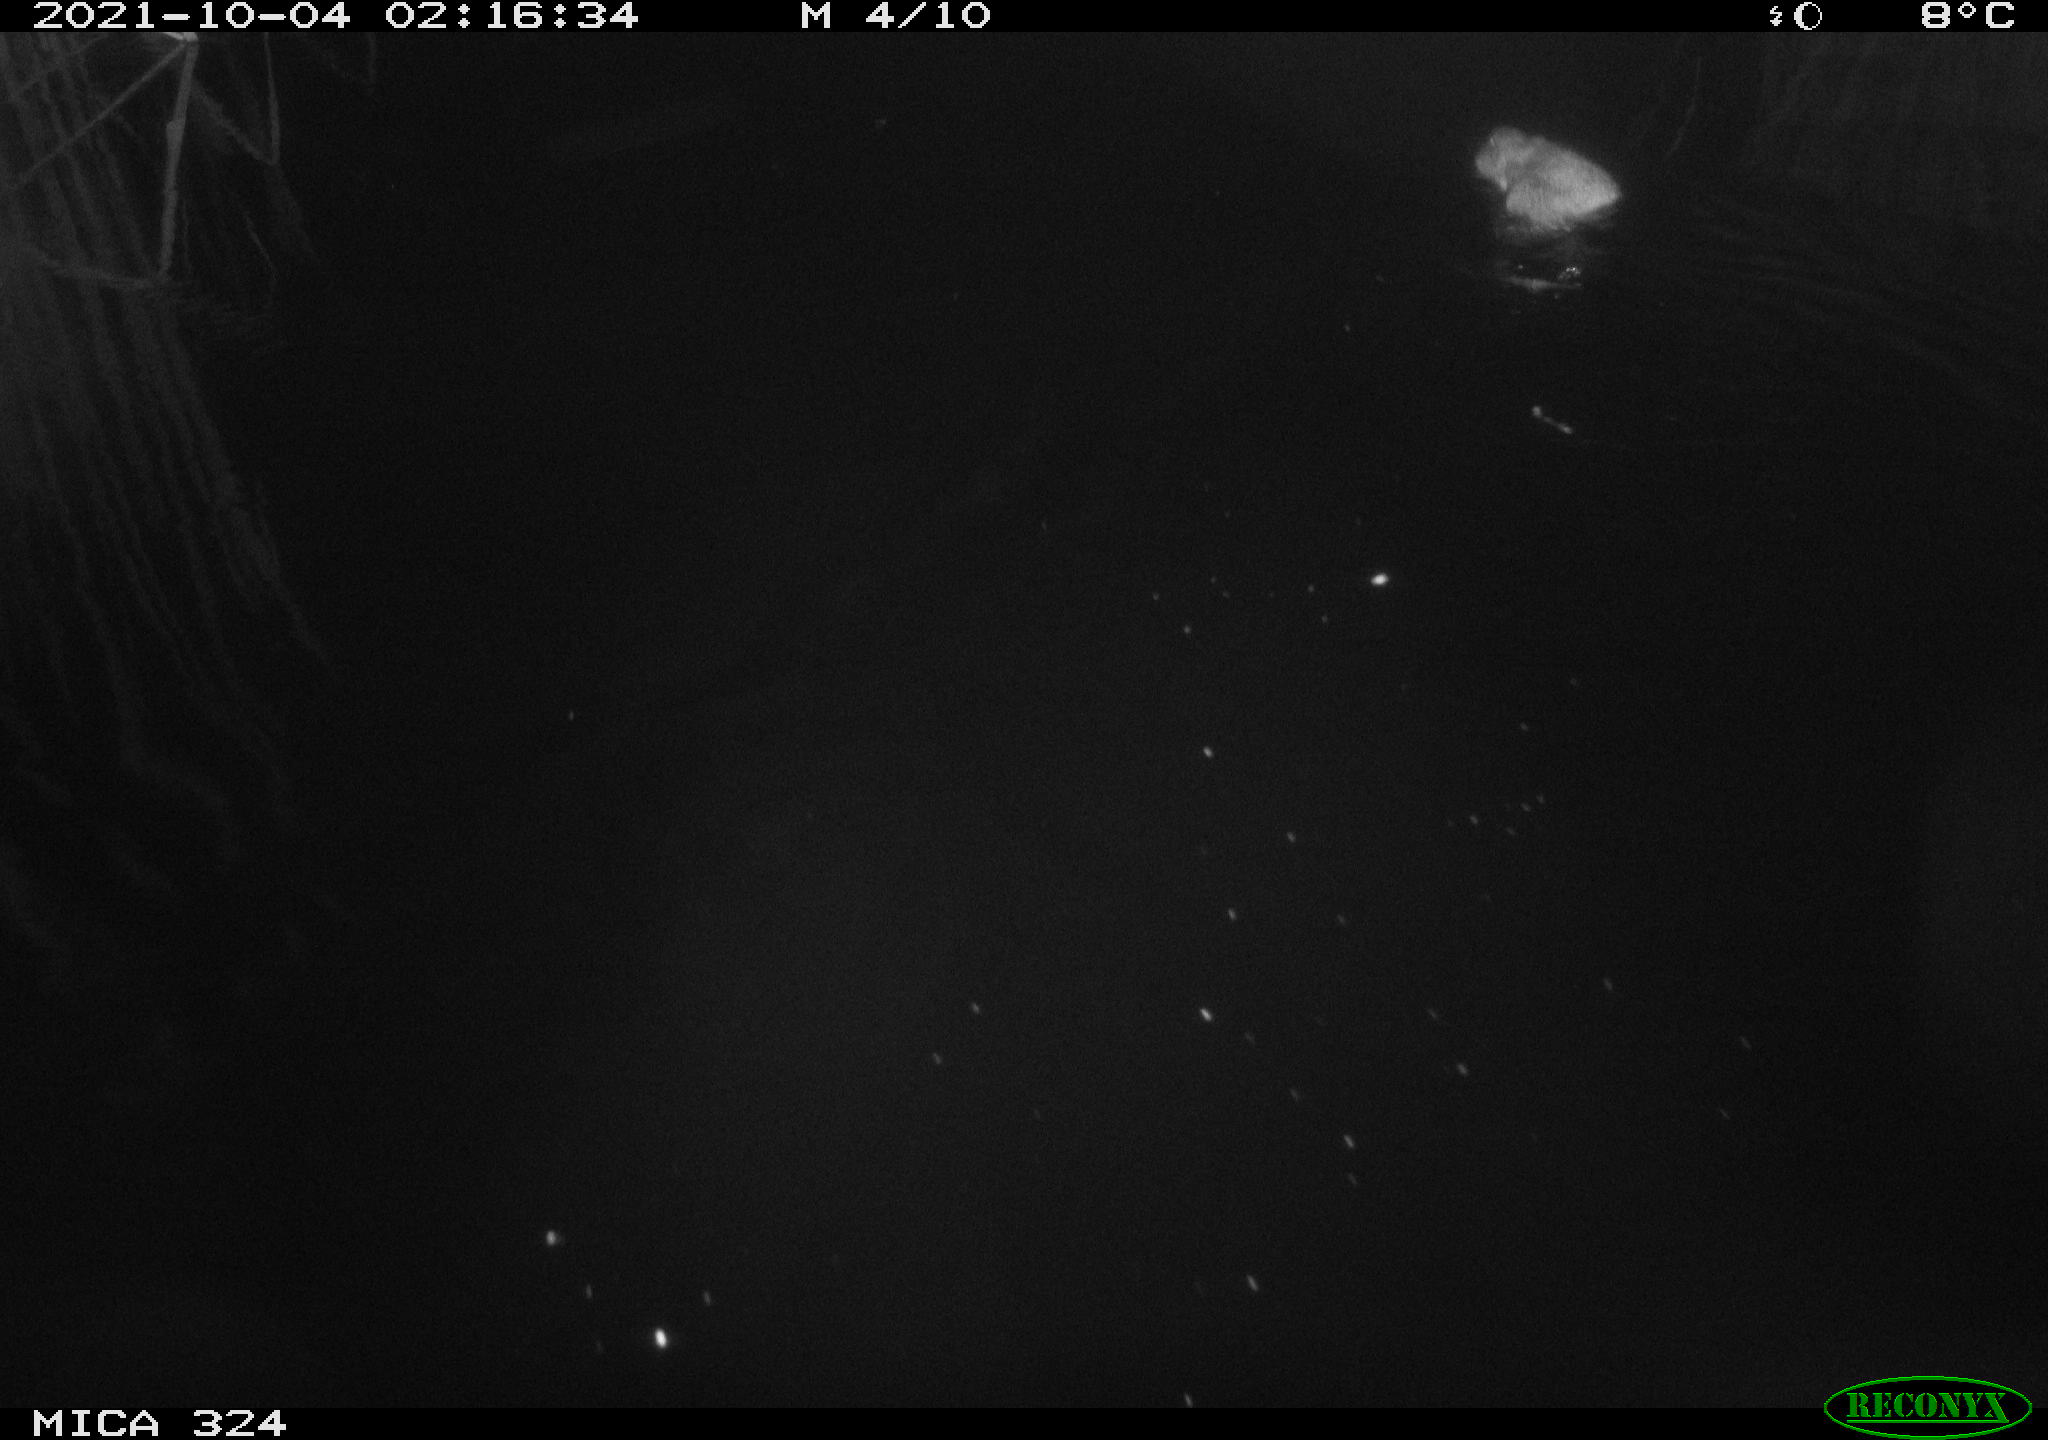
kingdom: Animalia
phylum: Chordata
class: Mammalia
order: Rodentia
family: Cricetidae
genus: Ondatra
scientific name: Ondatra zibethicus
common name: Muskrat
